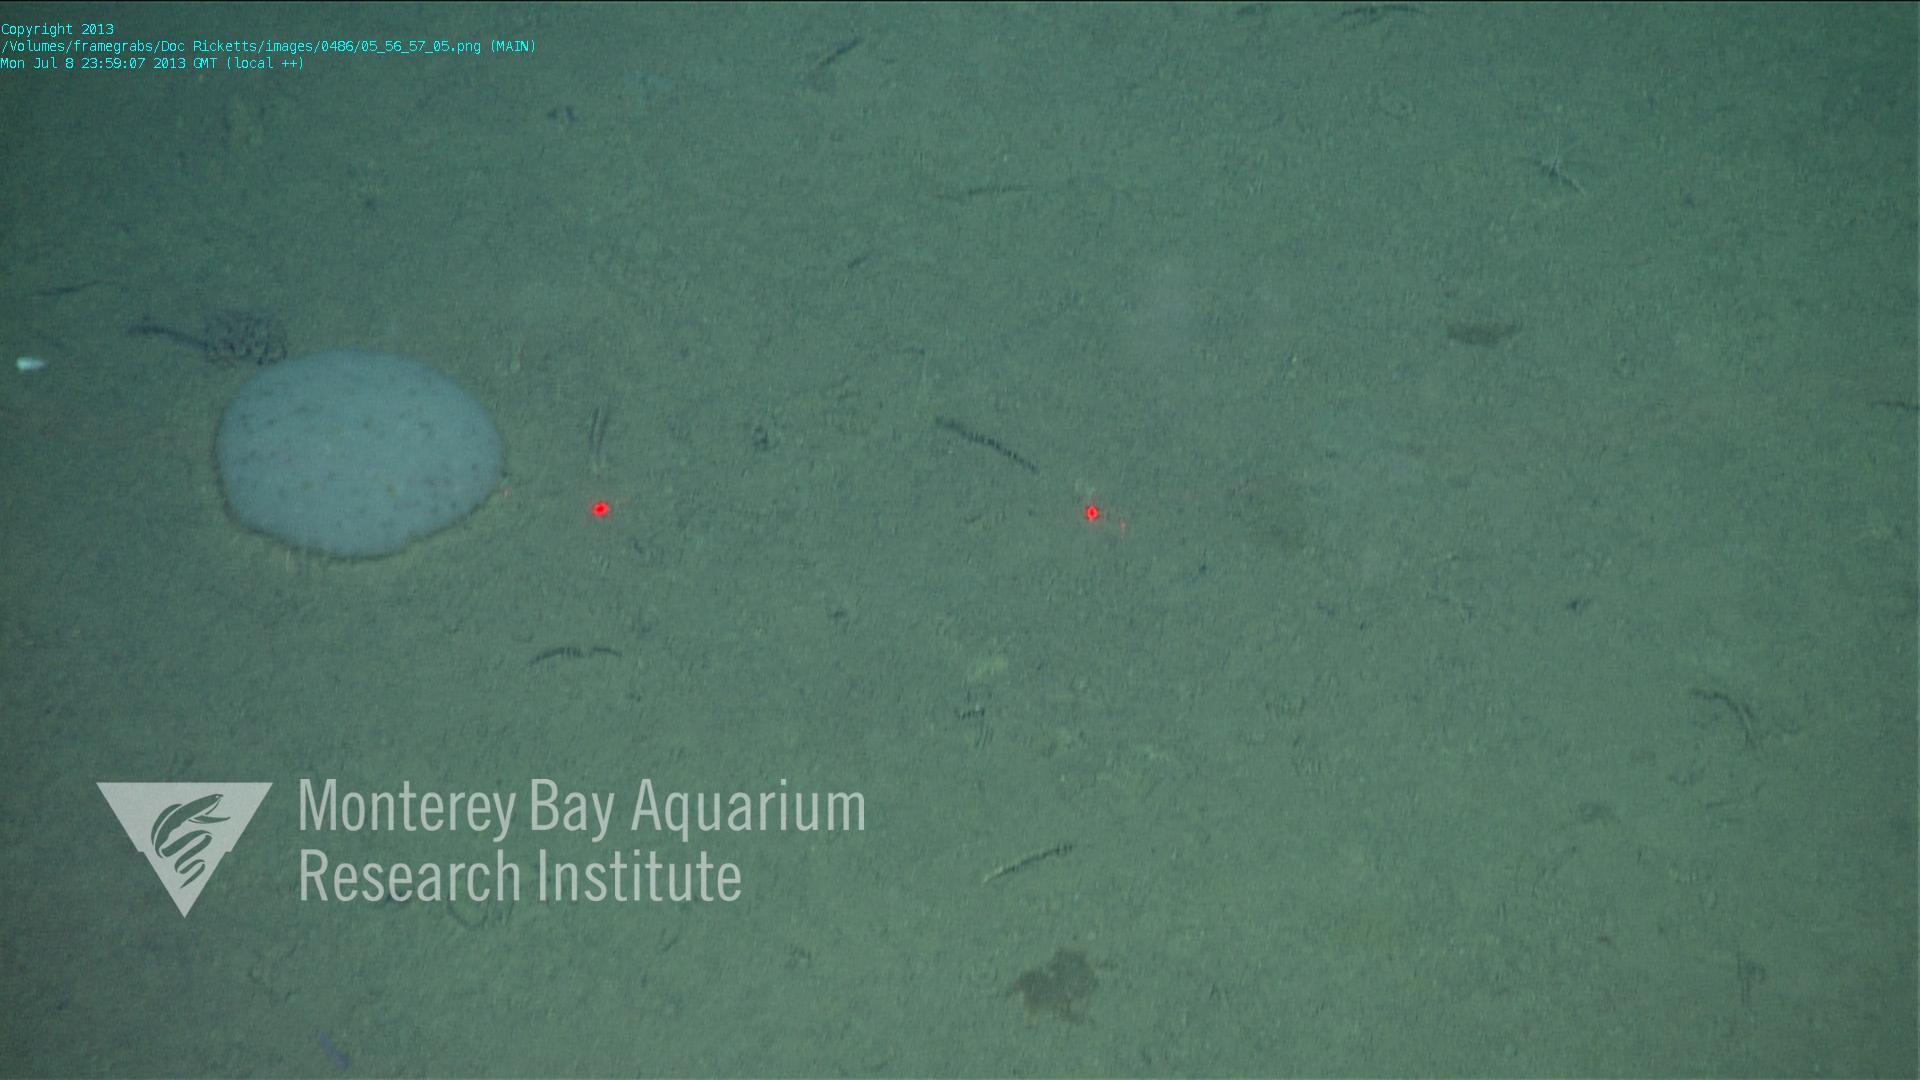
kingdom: Animalia
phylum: Porifera
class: Hexactinellida
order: Lyssacinosida
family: Euplectellidae
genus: Docosaccus
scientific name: Docosaccus maculatus
